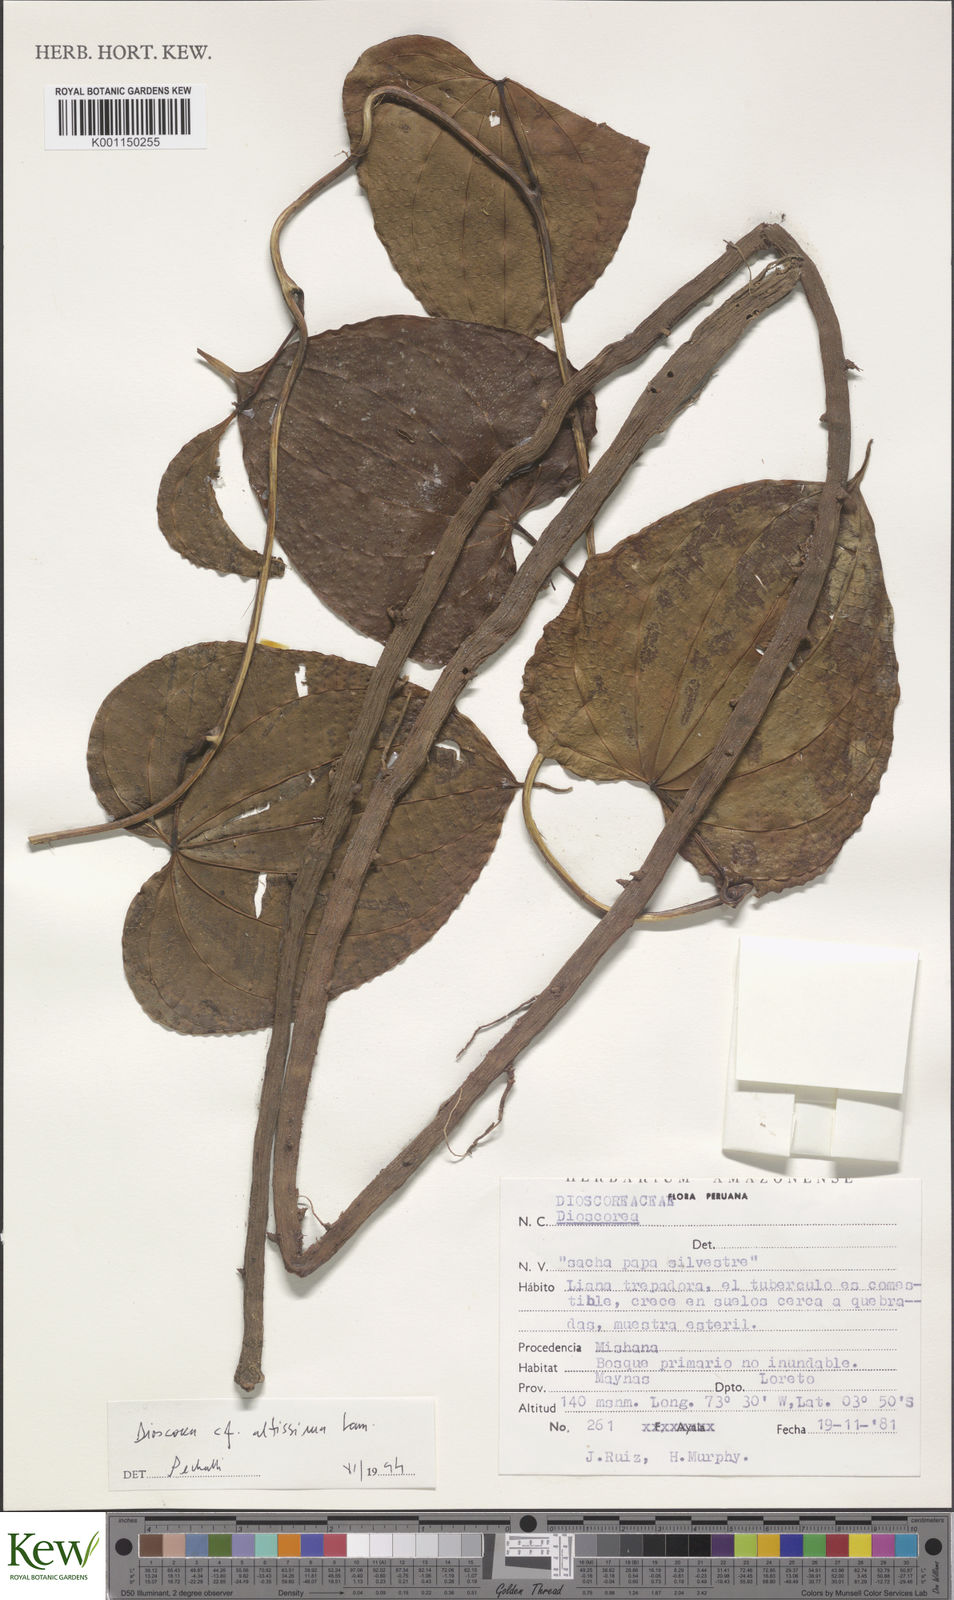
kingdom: Plantae
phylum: Tracheophyta
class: Liliopsida
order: Dioscoreales
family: Dioscoreaceae
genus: Dioscorea
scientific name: Dioscorea cayenensis
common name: Attoto yam
